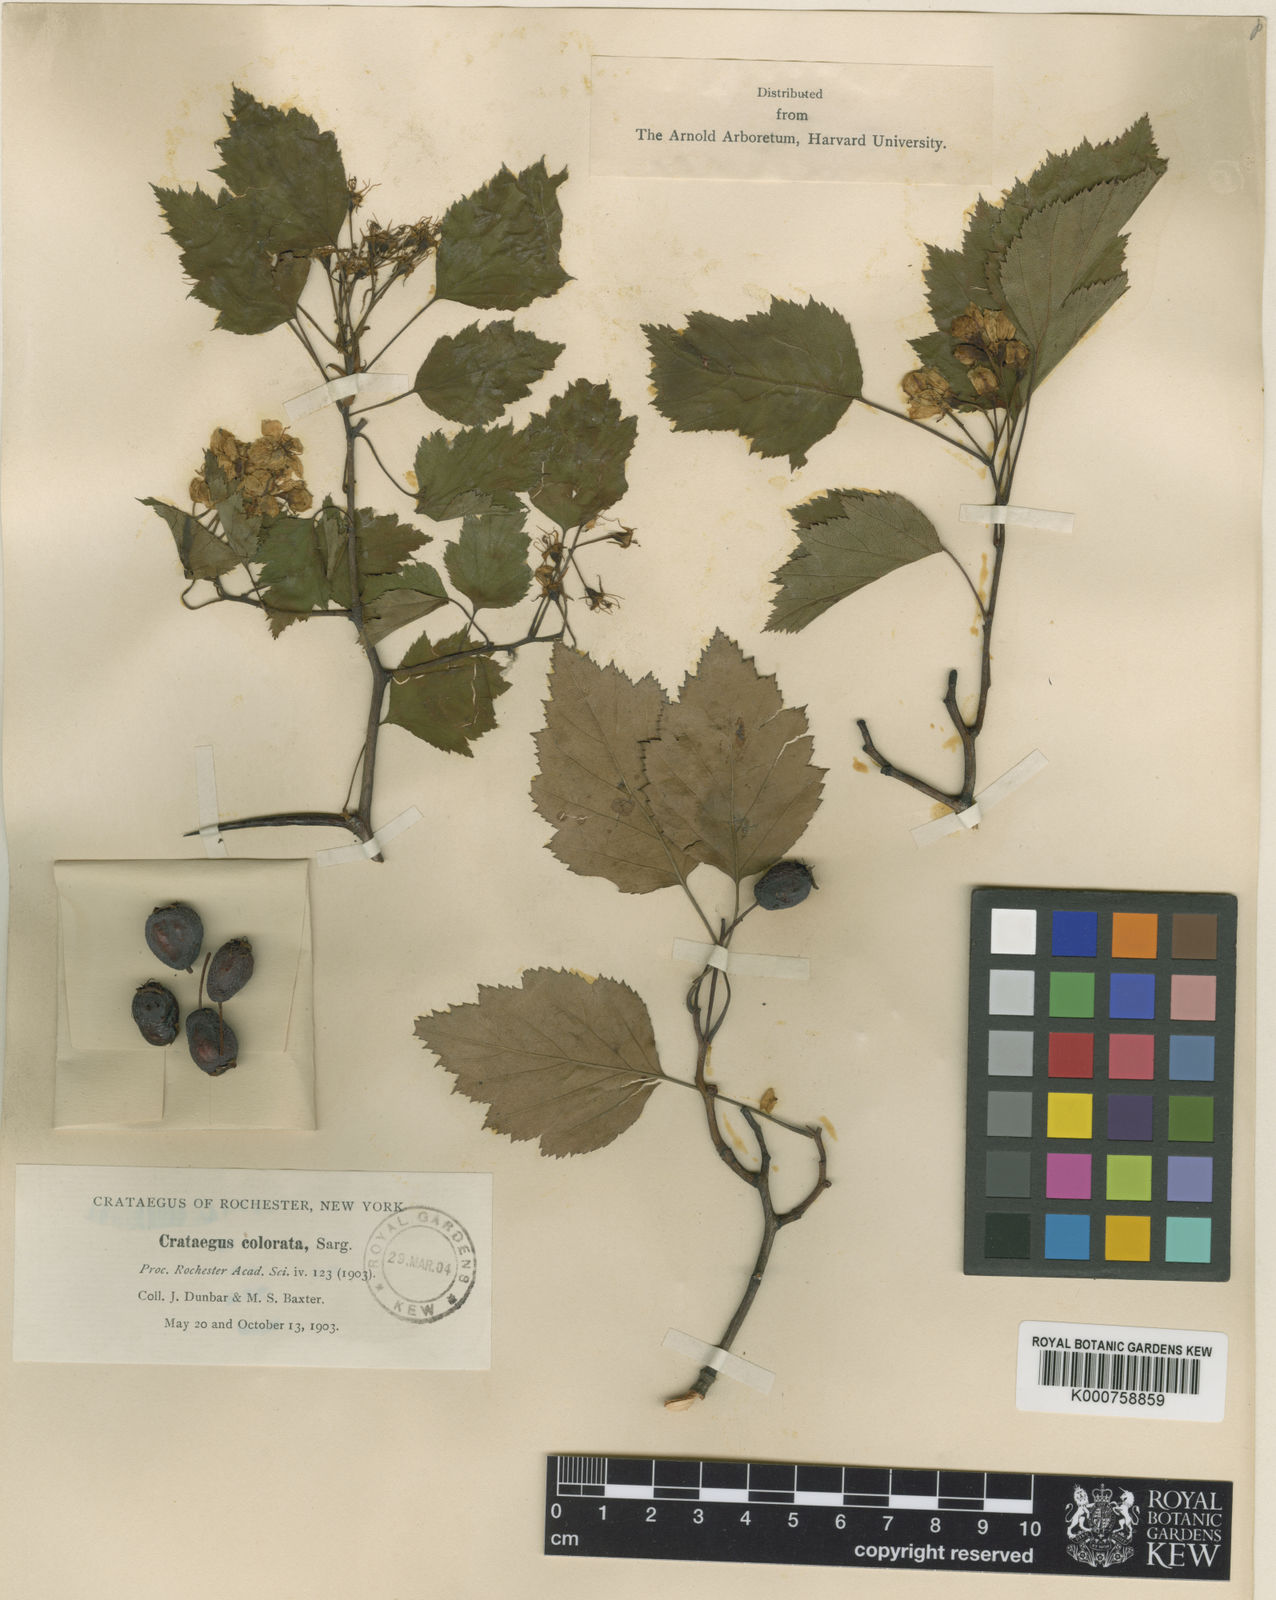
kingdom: Plantae
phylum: Tracheophyta
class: Magnoliopsida
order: Rosales
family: Rosaceae
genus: Crataegus
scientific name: Crataegus colorata
